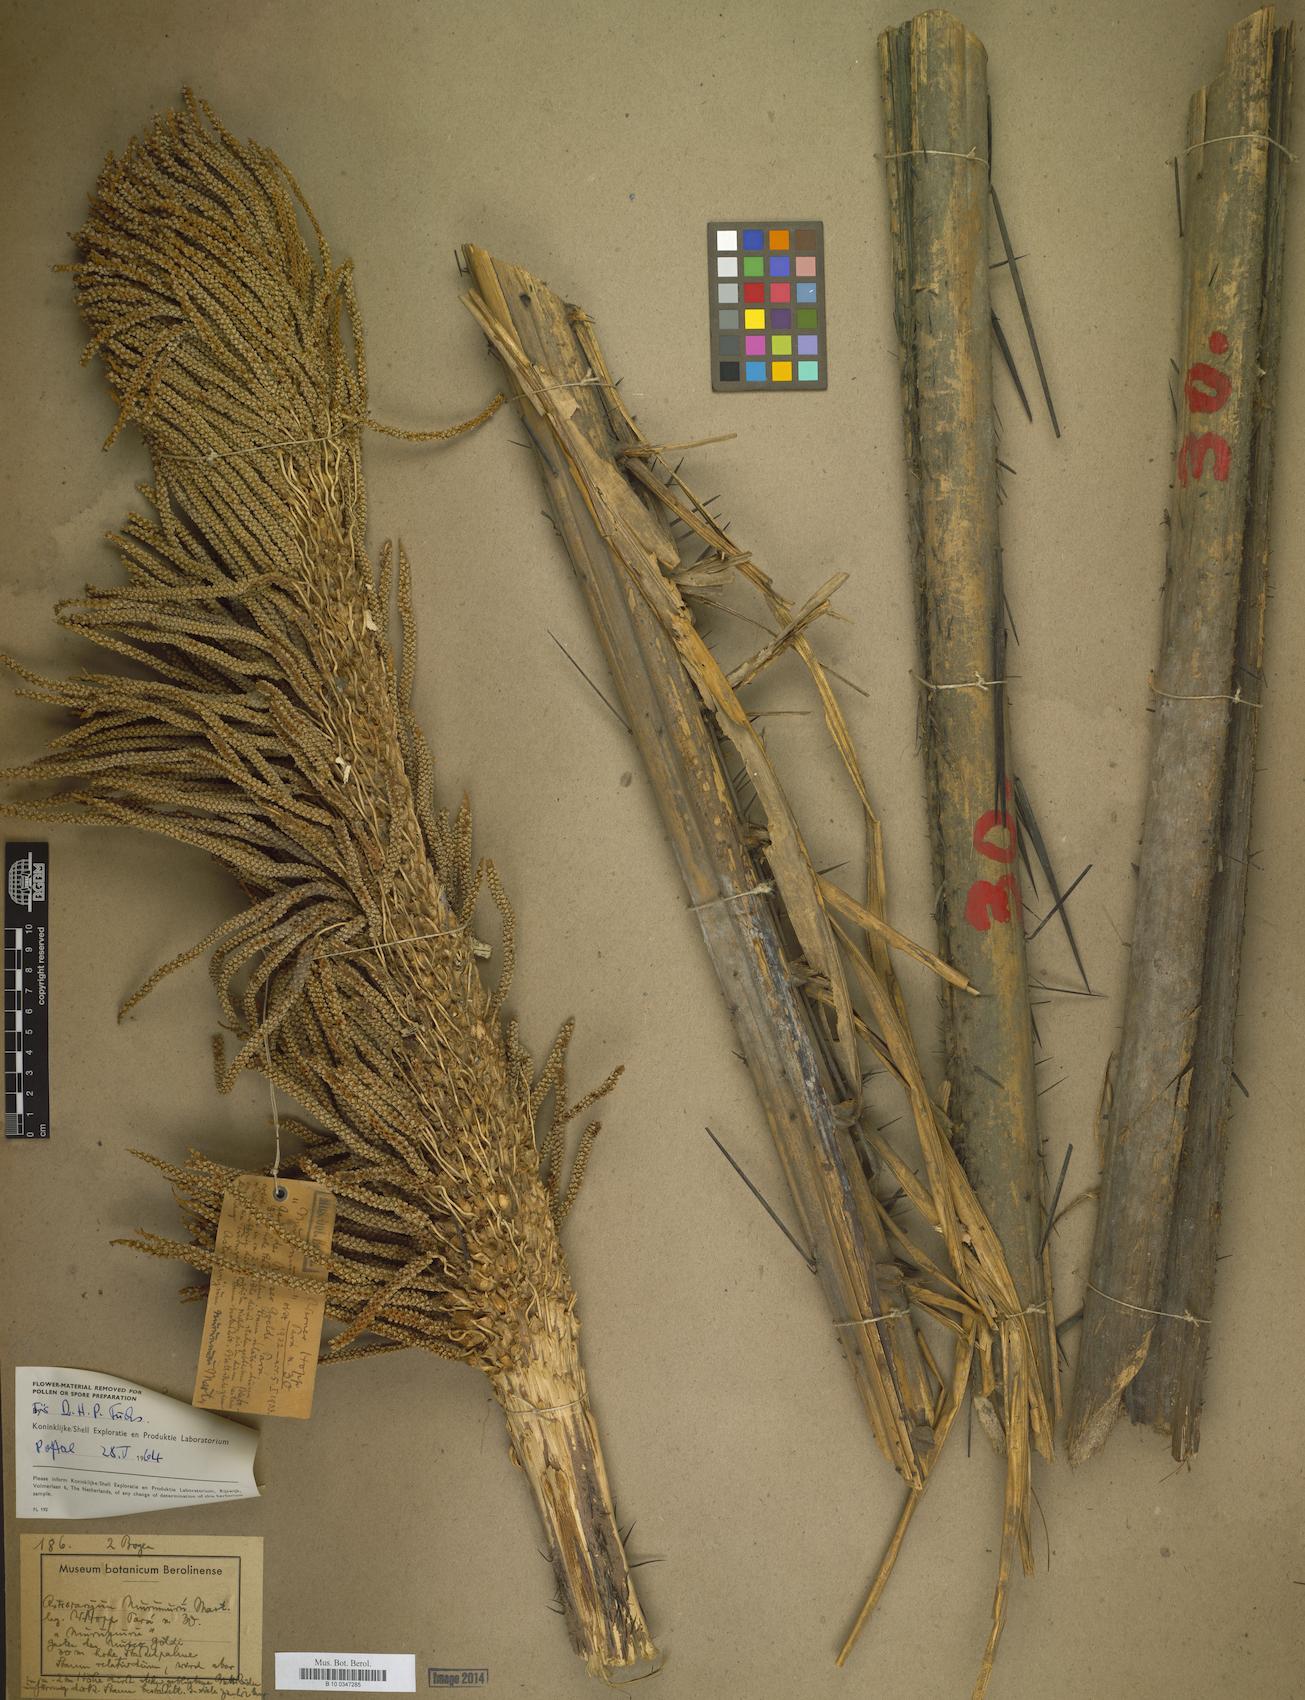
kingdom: Plantae
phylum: Tracheophyta
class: Liliopsida
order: Arecales
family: Arecaceae
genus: Astrocaryum
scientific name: Astrocaryum
